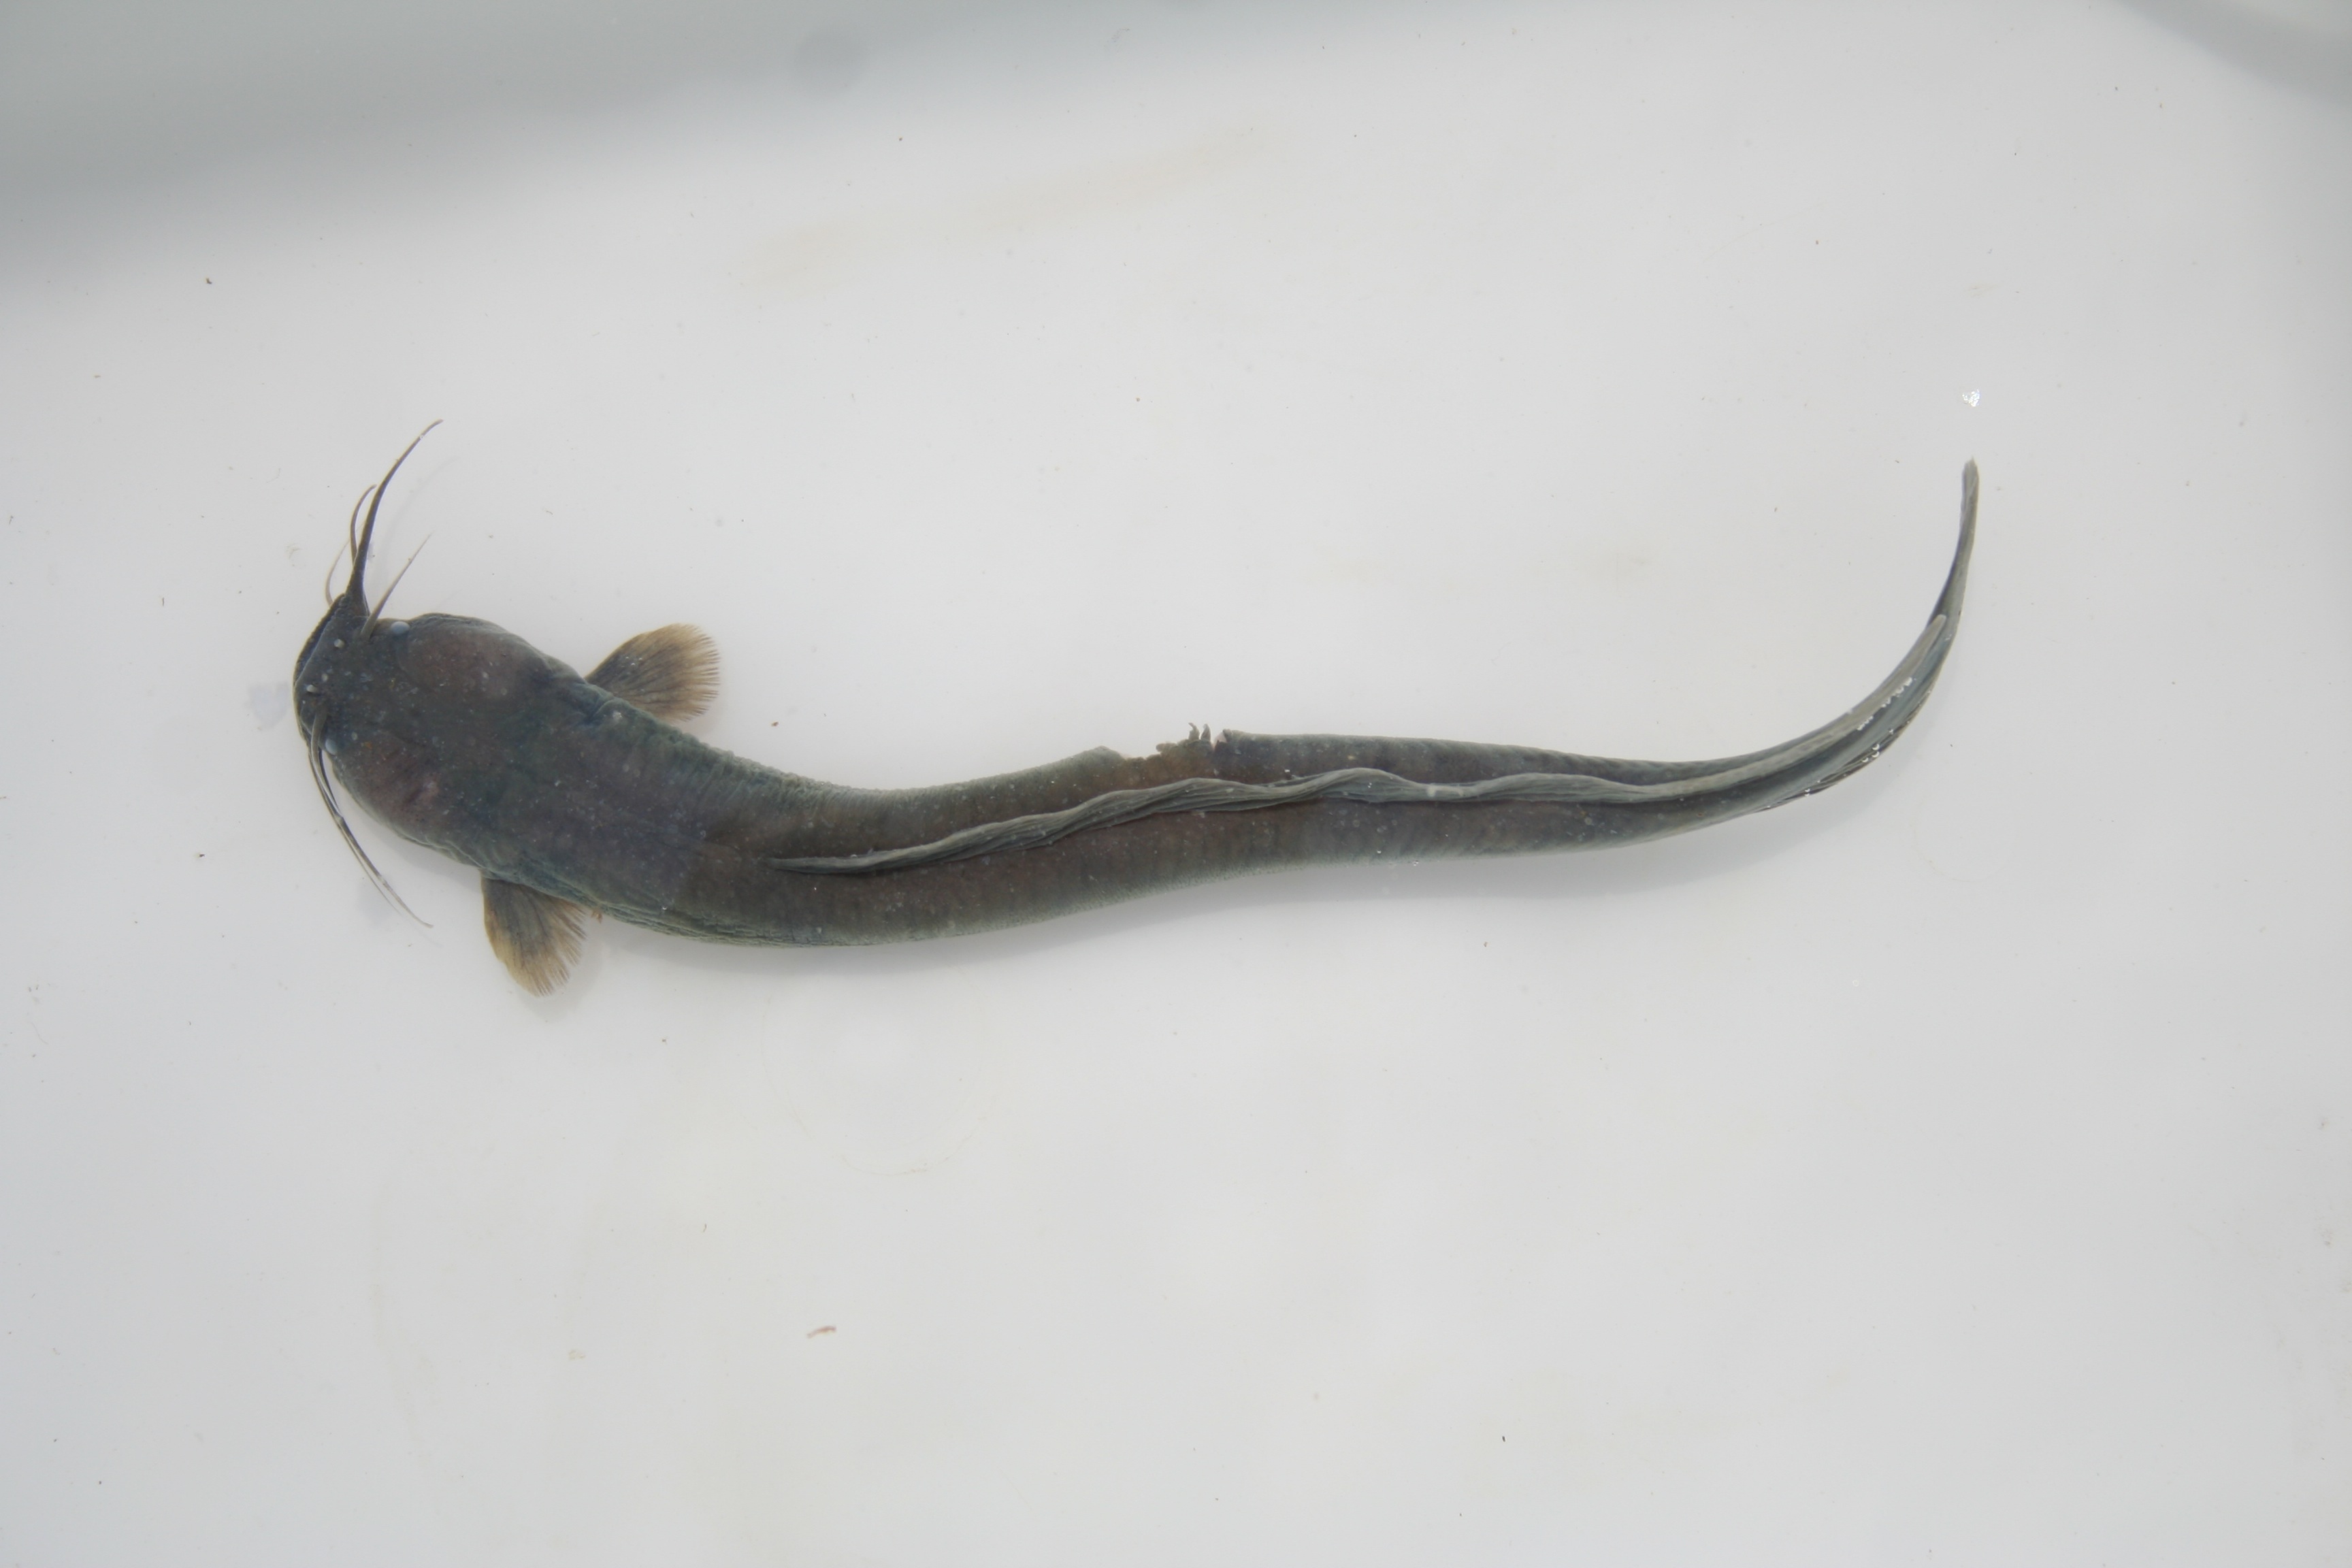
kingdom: Animalia
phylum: Chordata
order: Siluriformes
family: Clariidae
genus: Clariallabes
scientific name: Clariallabes
